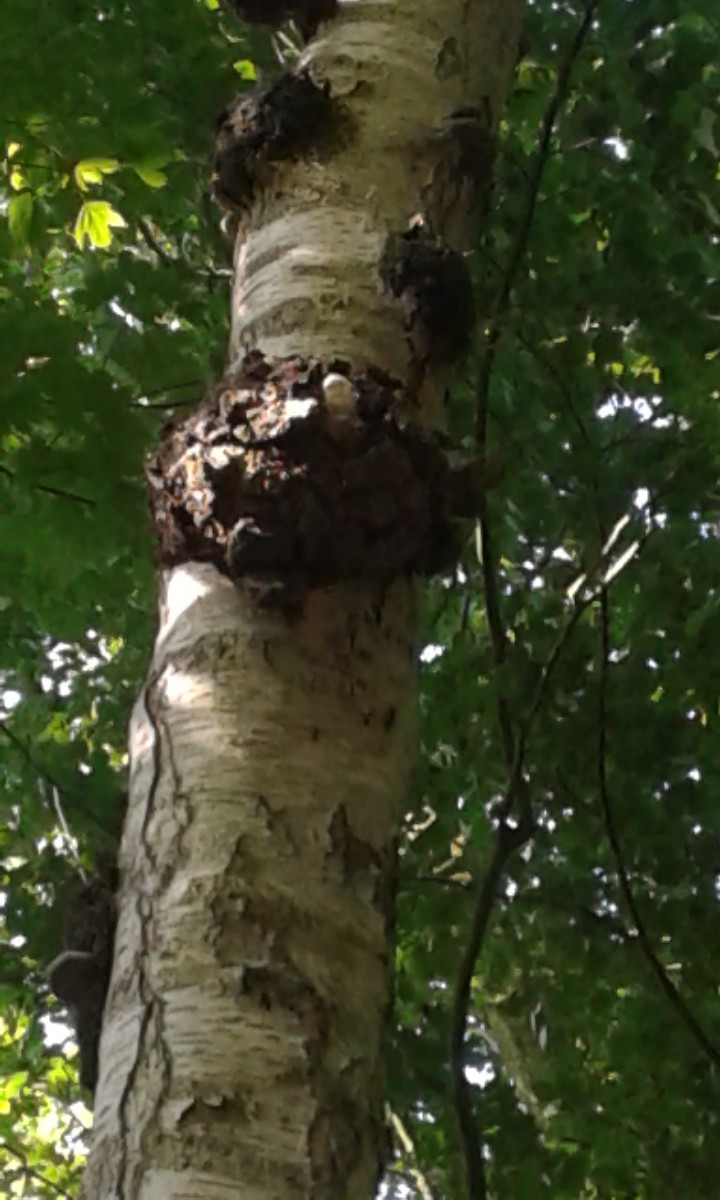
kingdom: Fungi
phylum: Basidiomycota
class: Agaricomycetes
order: Hymenochaetales
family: Hymenochaetaceae
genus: Inonotus
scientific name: Inonotus obliquus
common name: birke-spejlporesvamp
